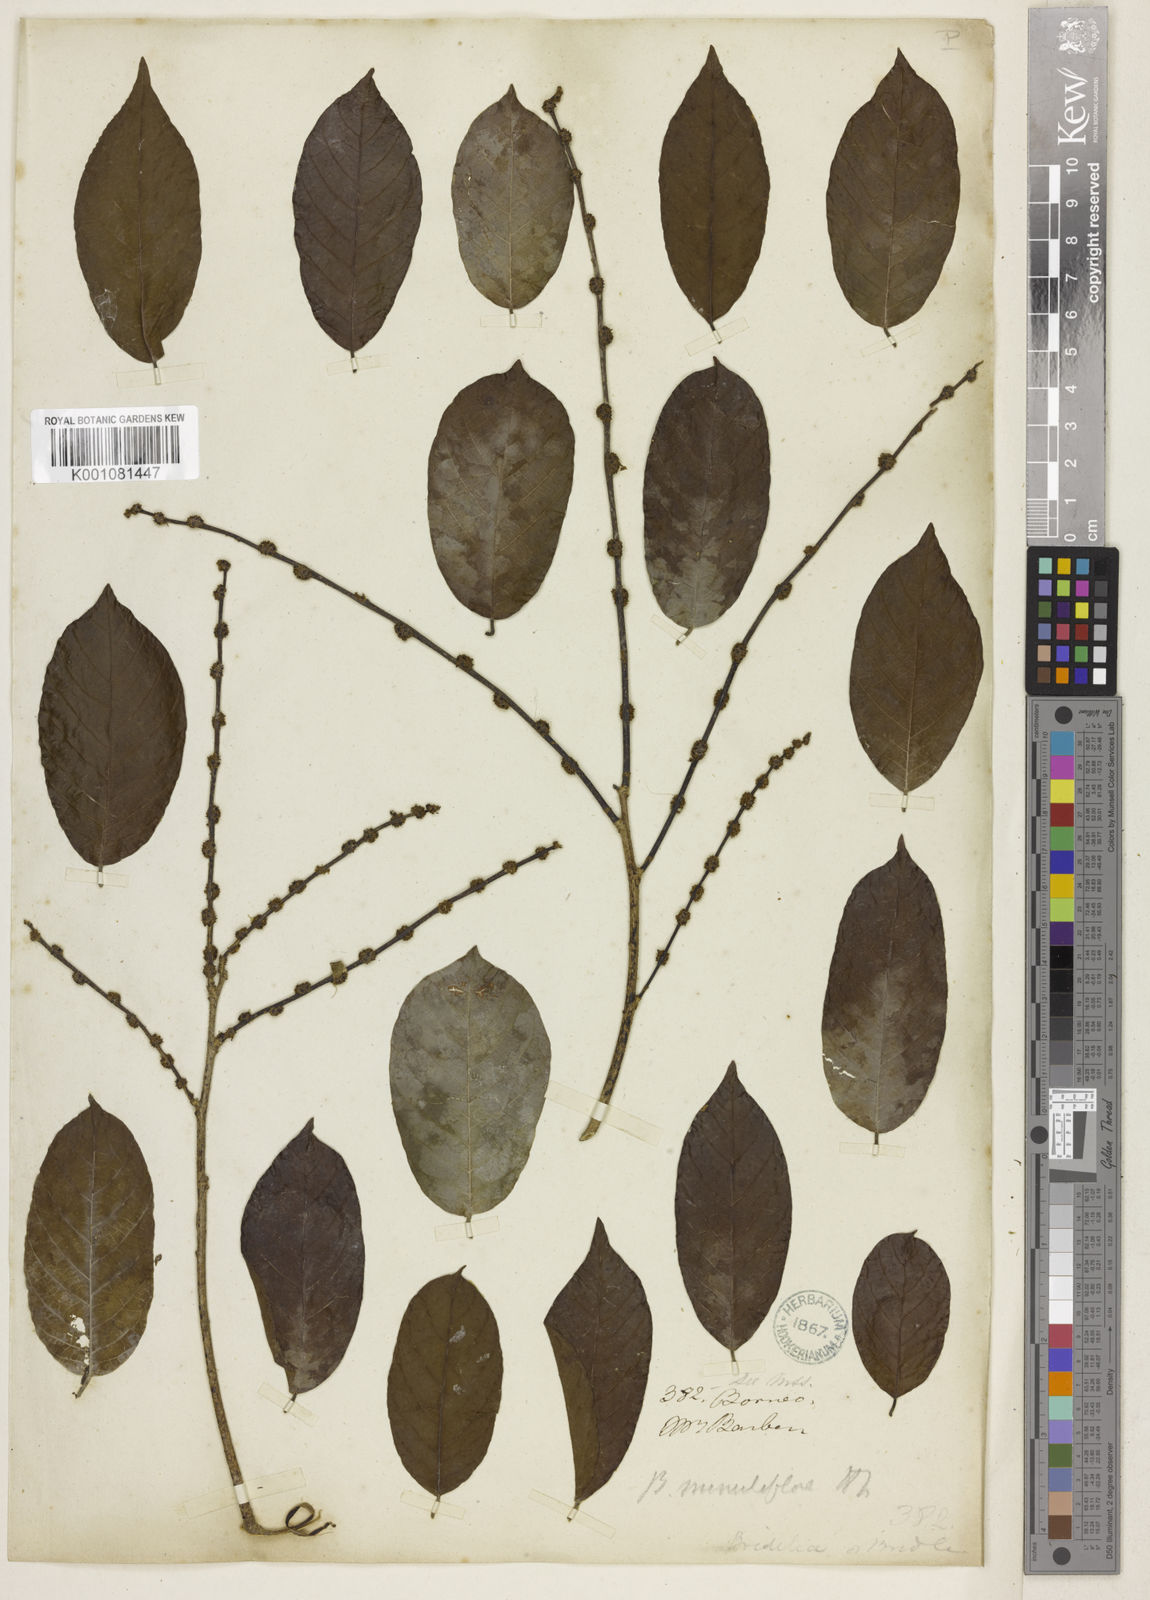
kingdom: Plantae
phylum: Tracheophyta
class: Magnoliopsida
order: Malpighiales
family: Phyllanthaceae
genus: Bridelia
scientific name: Bridelia insulana
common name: Grey-birch
